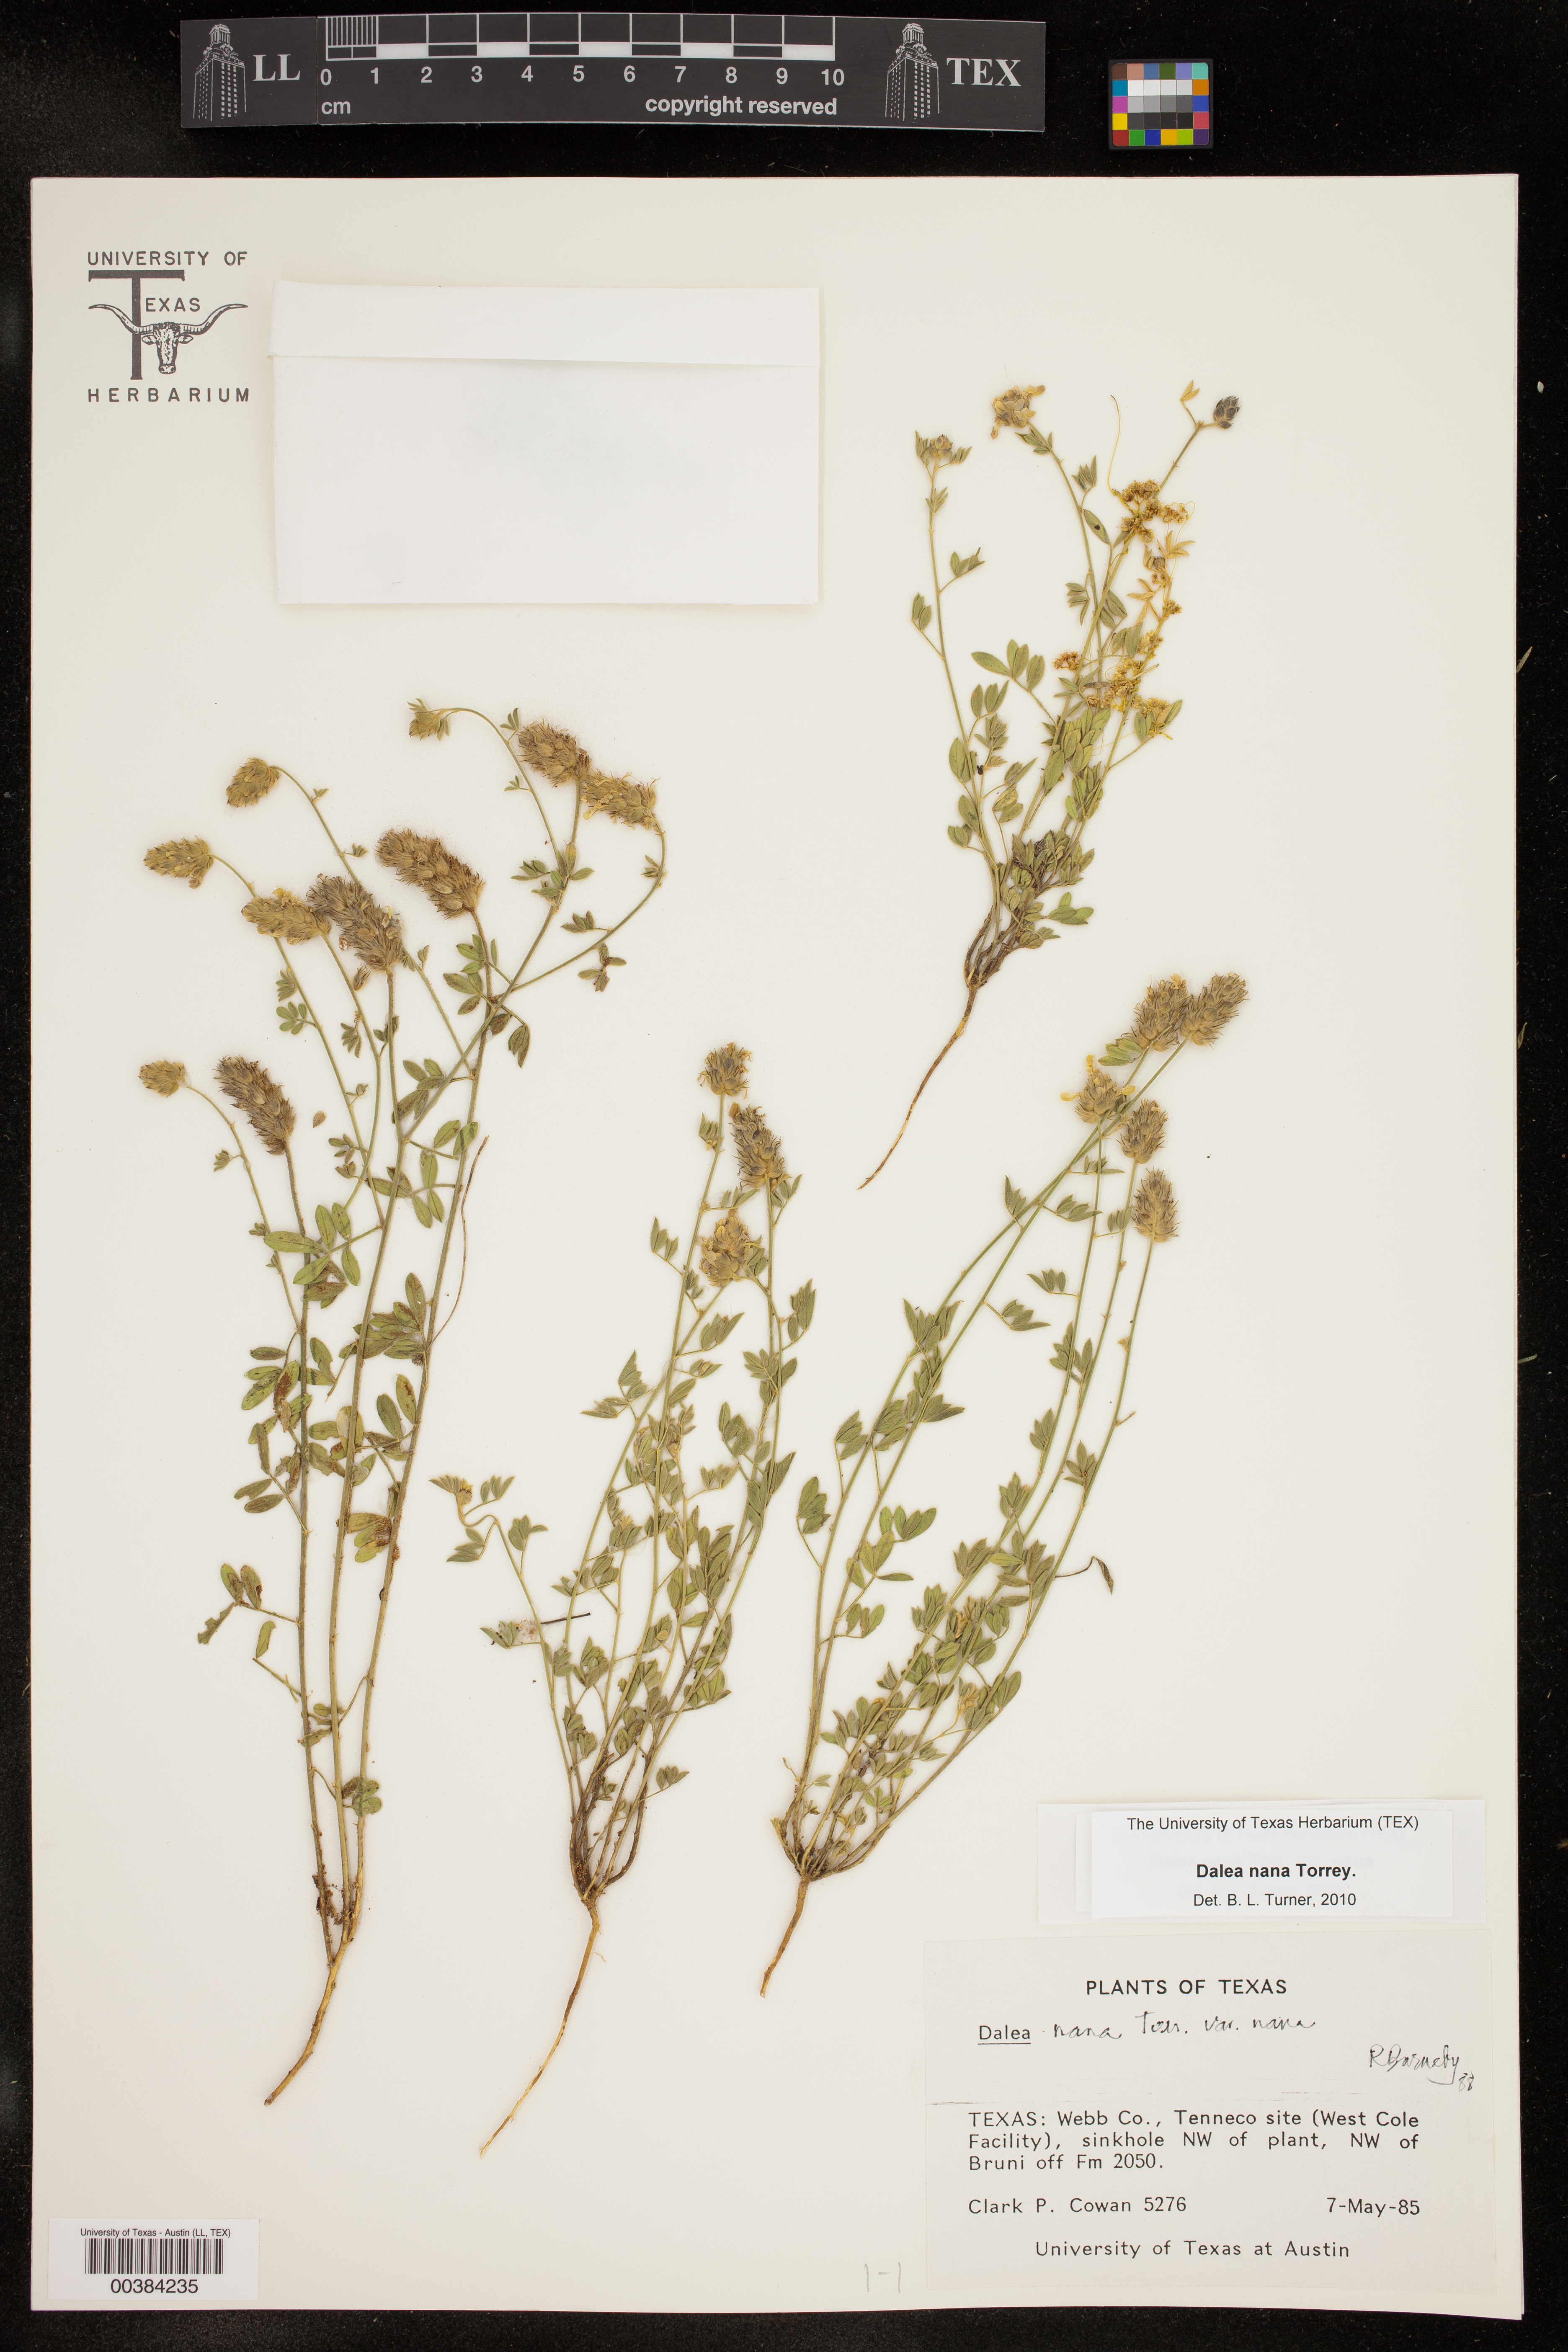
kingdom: Plantae
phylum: Tracheophyta
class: Magnoliopsida
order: Fabales
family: Fabaceae
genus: Dalea
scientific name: Dalea nana
